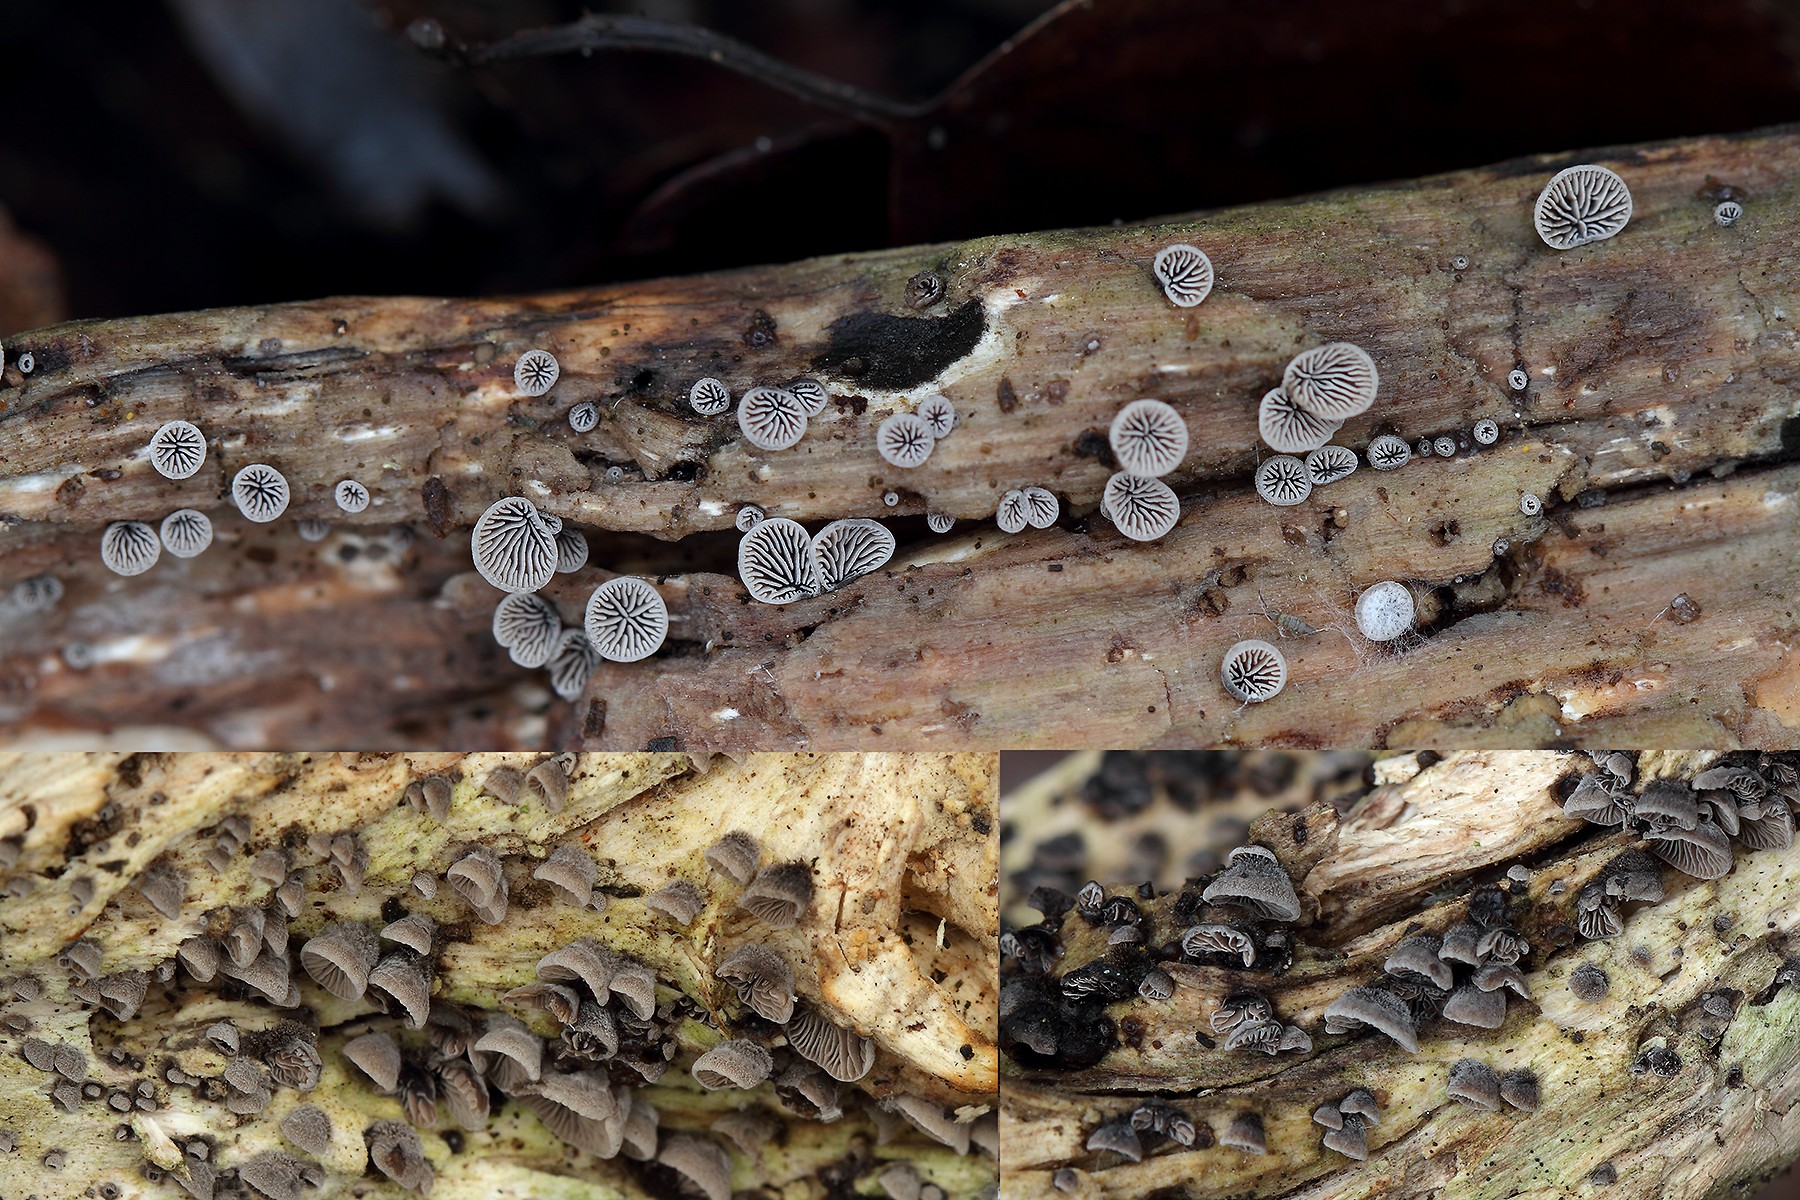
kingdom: Fungi
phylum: Basidiomycota
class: Agaricomycetes
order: Agaricales
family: Pleurotaceae
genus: Resupinatus
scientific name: Resupinatus trichotis
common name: mørkfiltet barkhat
